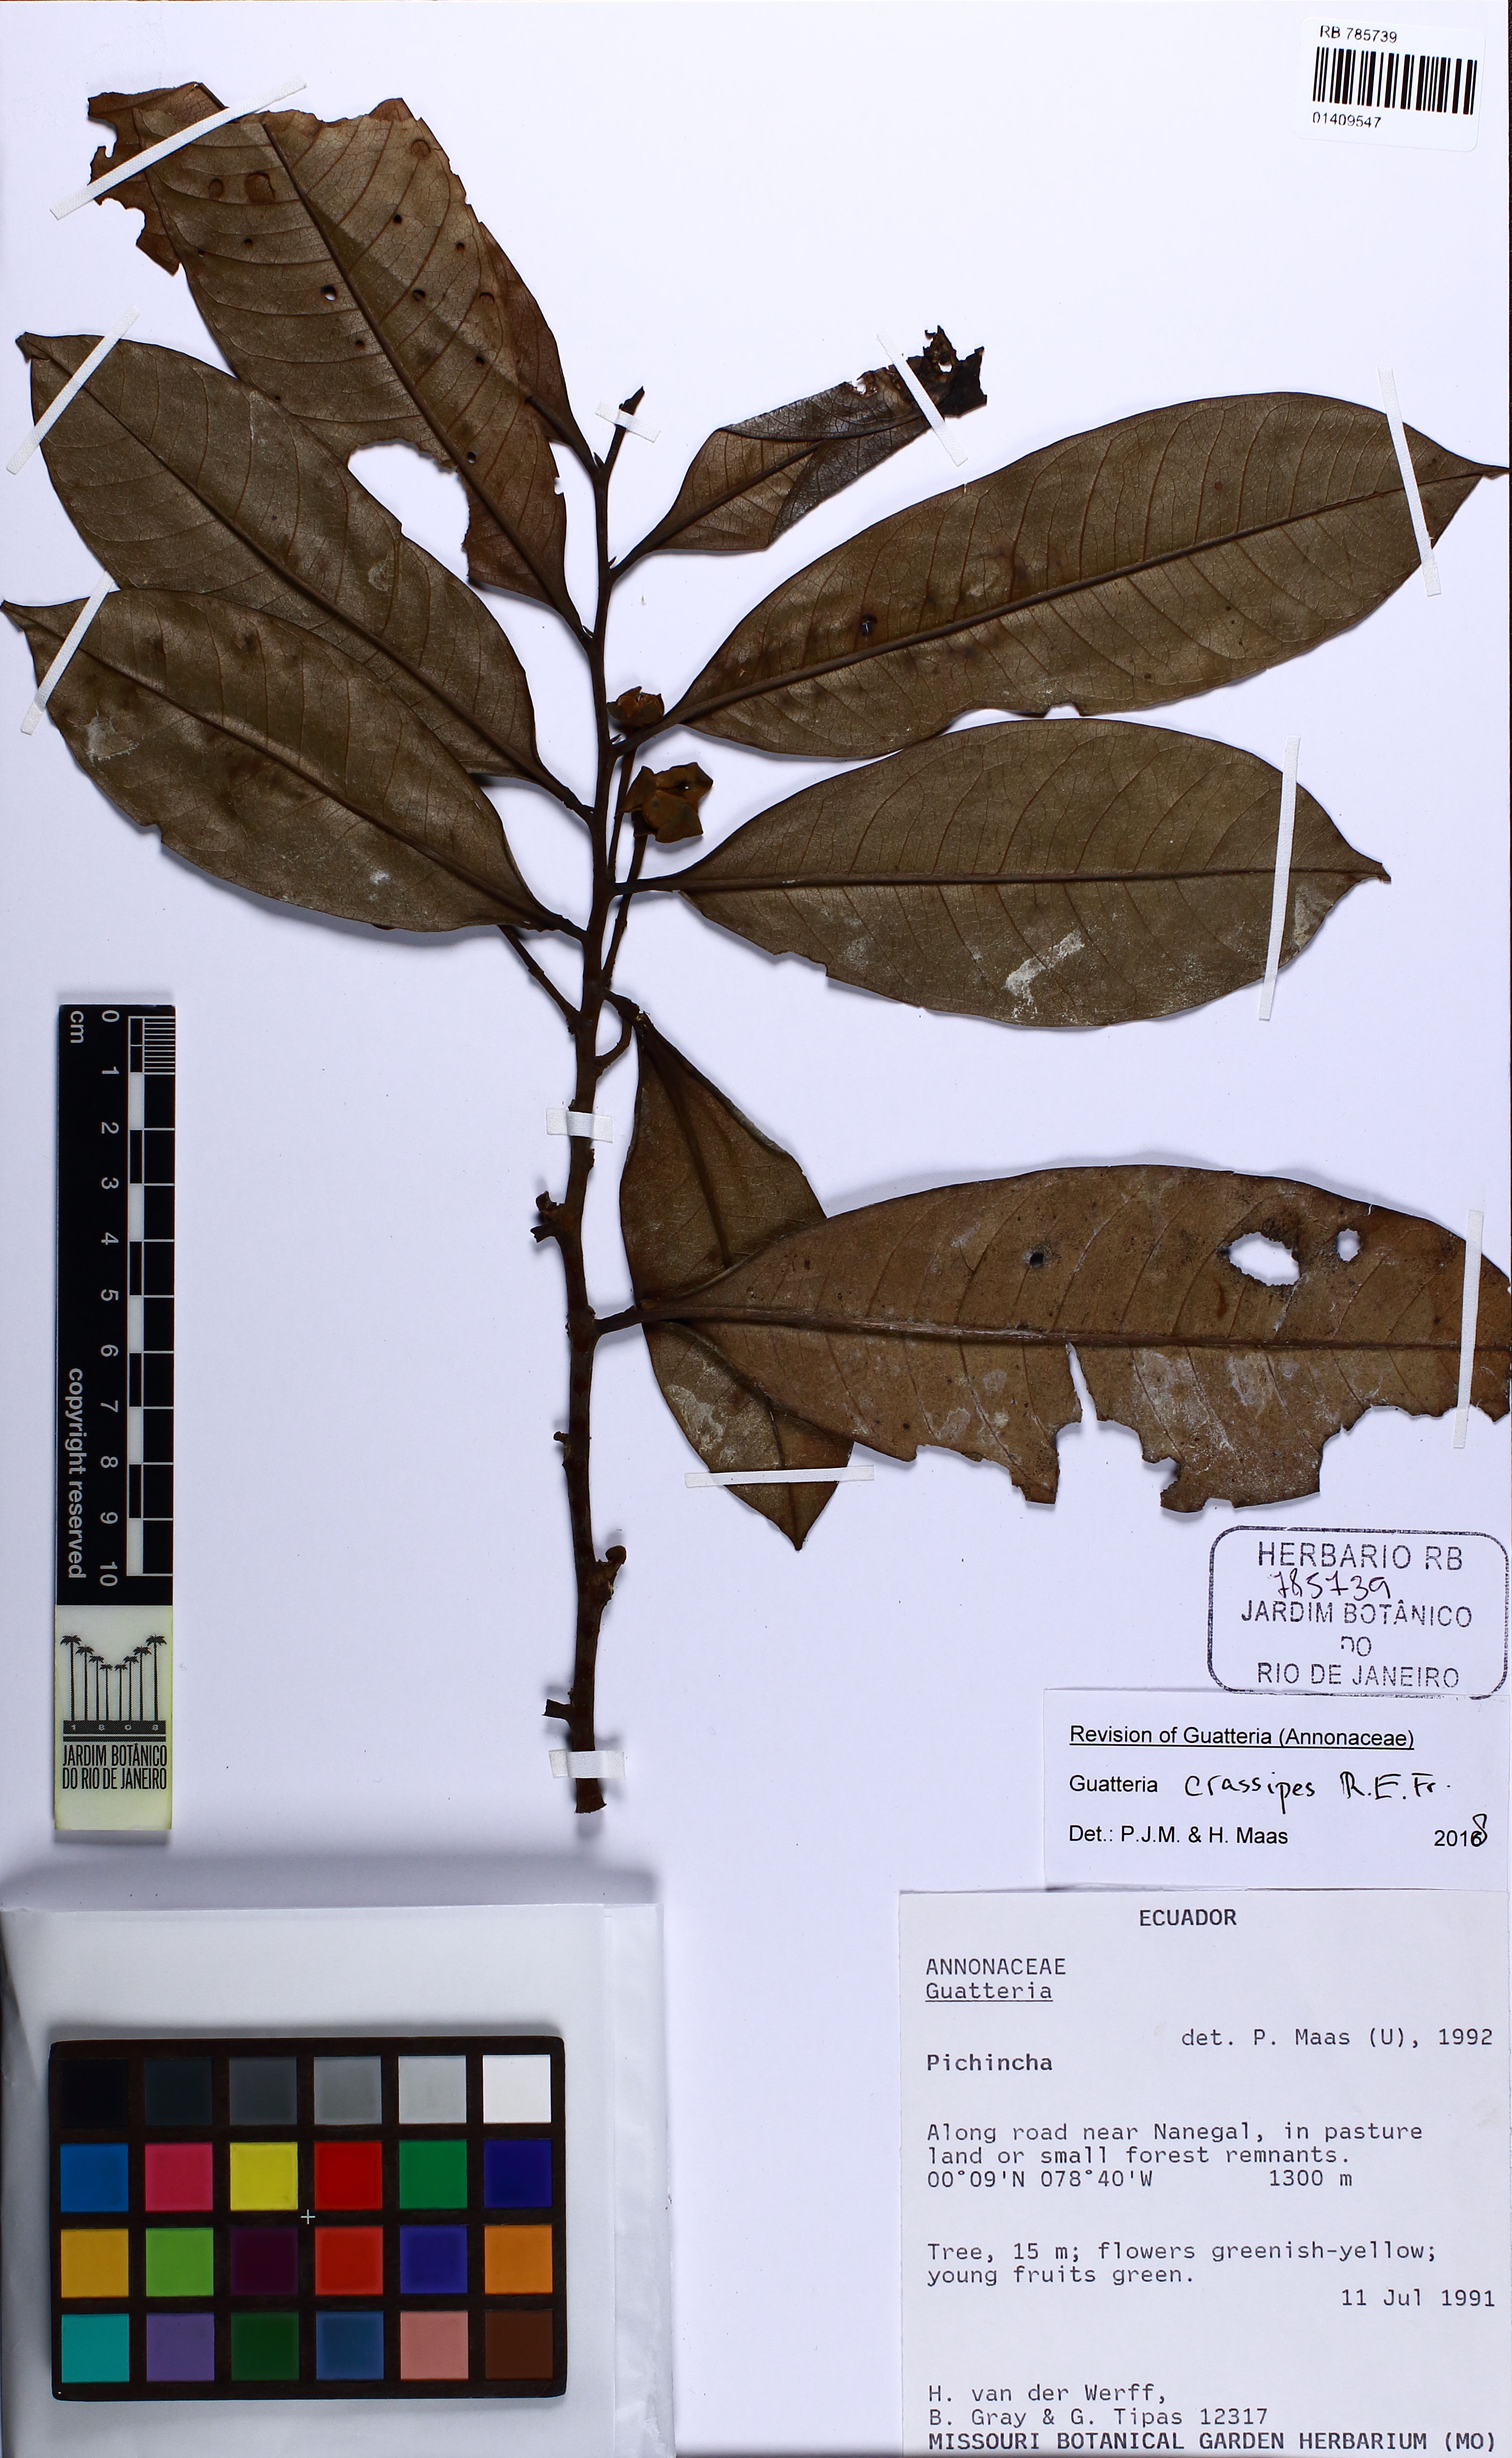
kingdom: Plantae
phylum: Tracheophyta
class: Magnoliopsida
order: Magnoliales
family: Annonaceae
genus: Guatteria
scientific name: Guatteria crassipes
